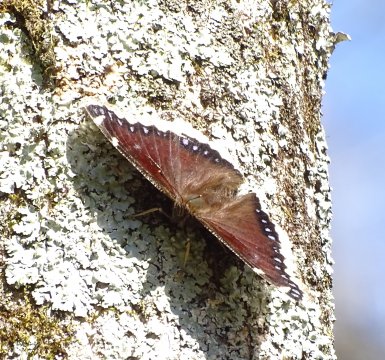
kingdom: Animalia
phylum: Arthropoda
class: Insecta
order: Lepidoptera
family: Nymphalidae
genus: Nymphalis
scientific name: Nymphalis antiopa
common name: Mourning Cloak
